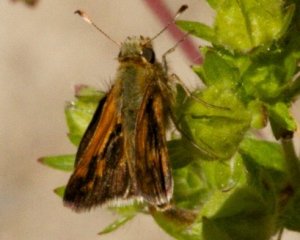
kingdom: Animalia
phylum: Arthropoda
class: Insecta
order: Lepidoptera
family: Hesperiidae
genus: Polites
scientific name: Polites coras
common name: Peck's Skipper
